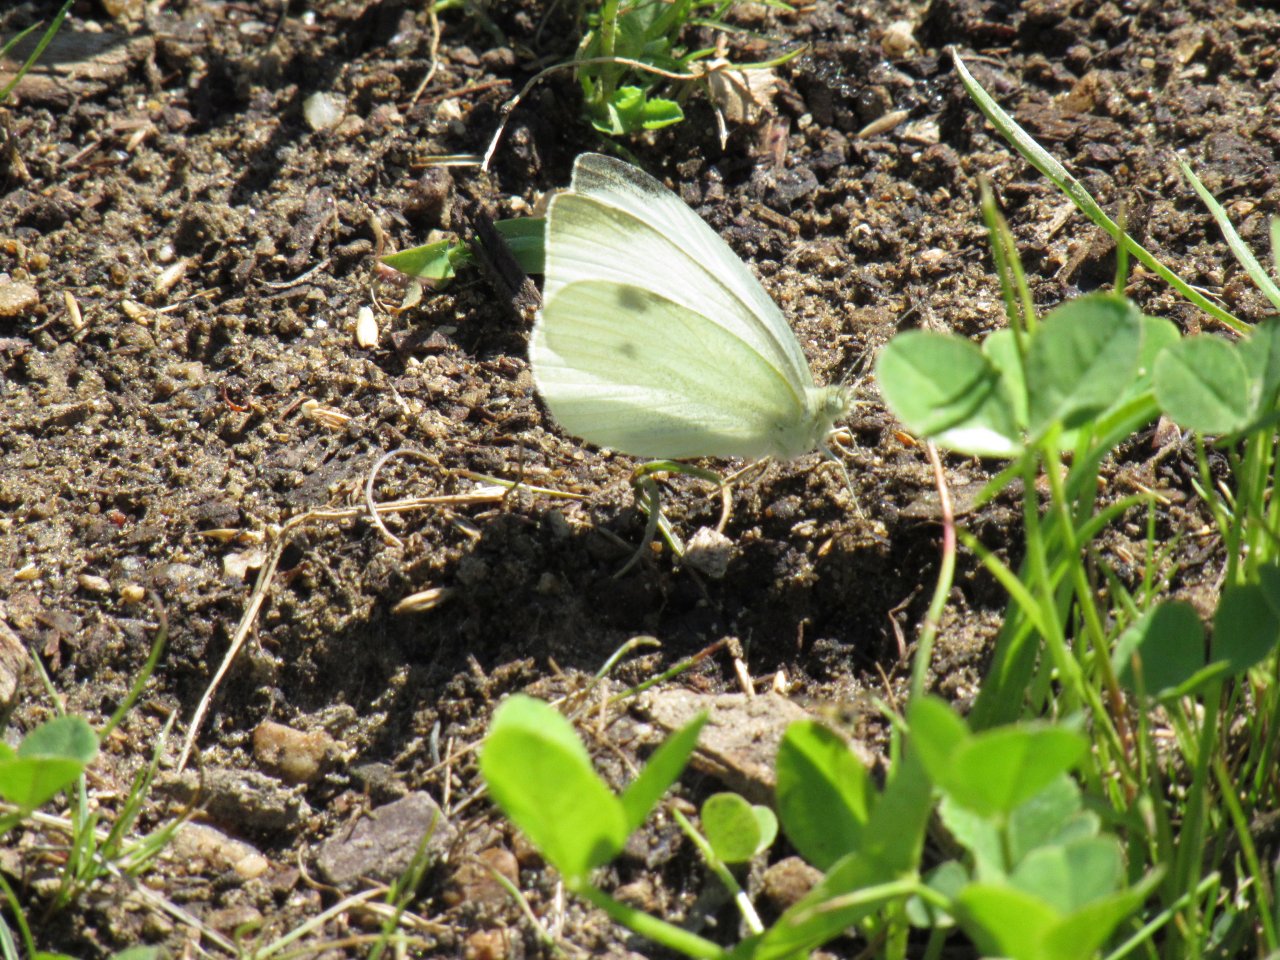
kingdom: Animalia
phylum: Arthropoda
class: Insecta
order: Lepidoptera
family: Pieridae
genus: Pieris
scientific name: Pieris rapae
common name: Cabbage White
